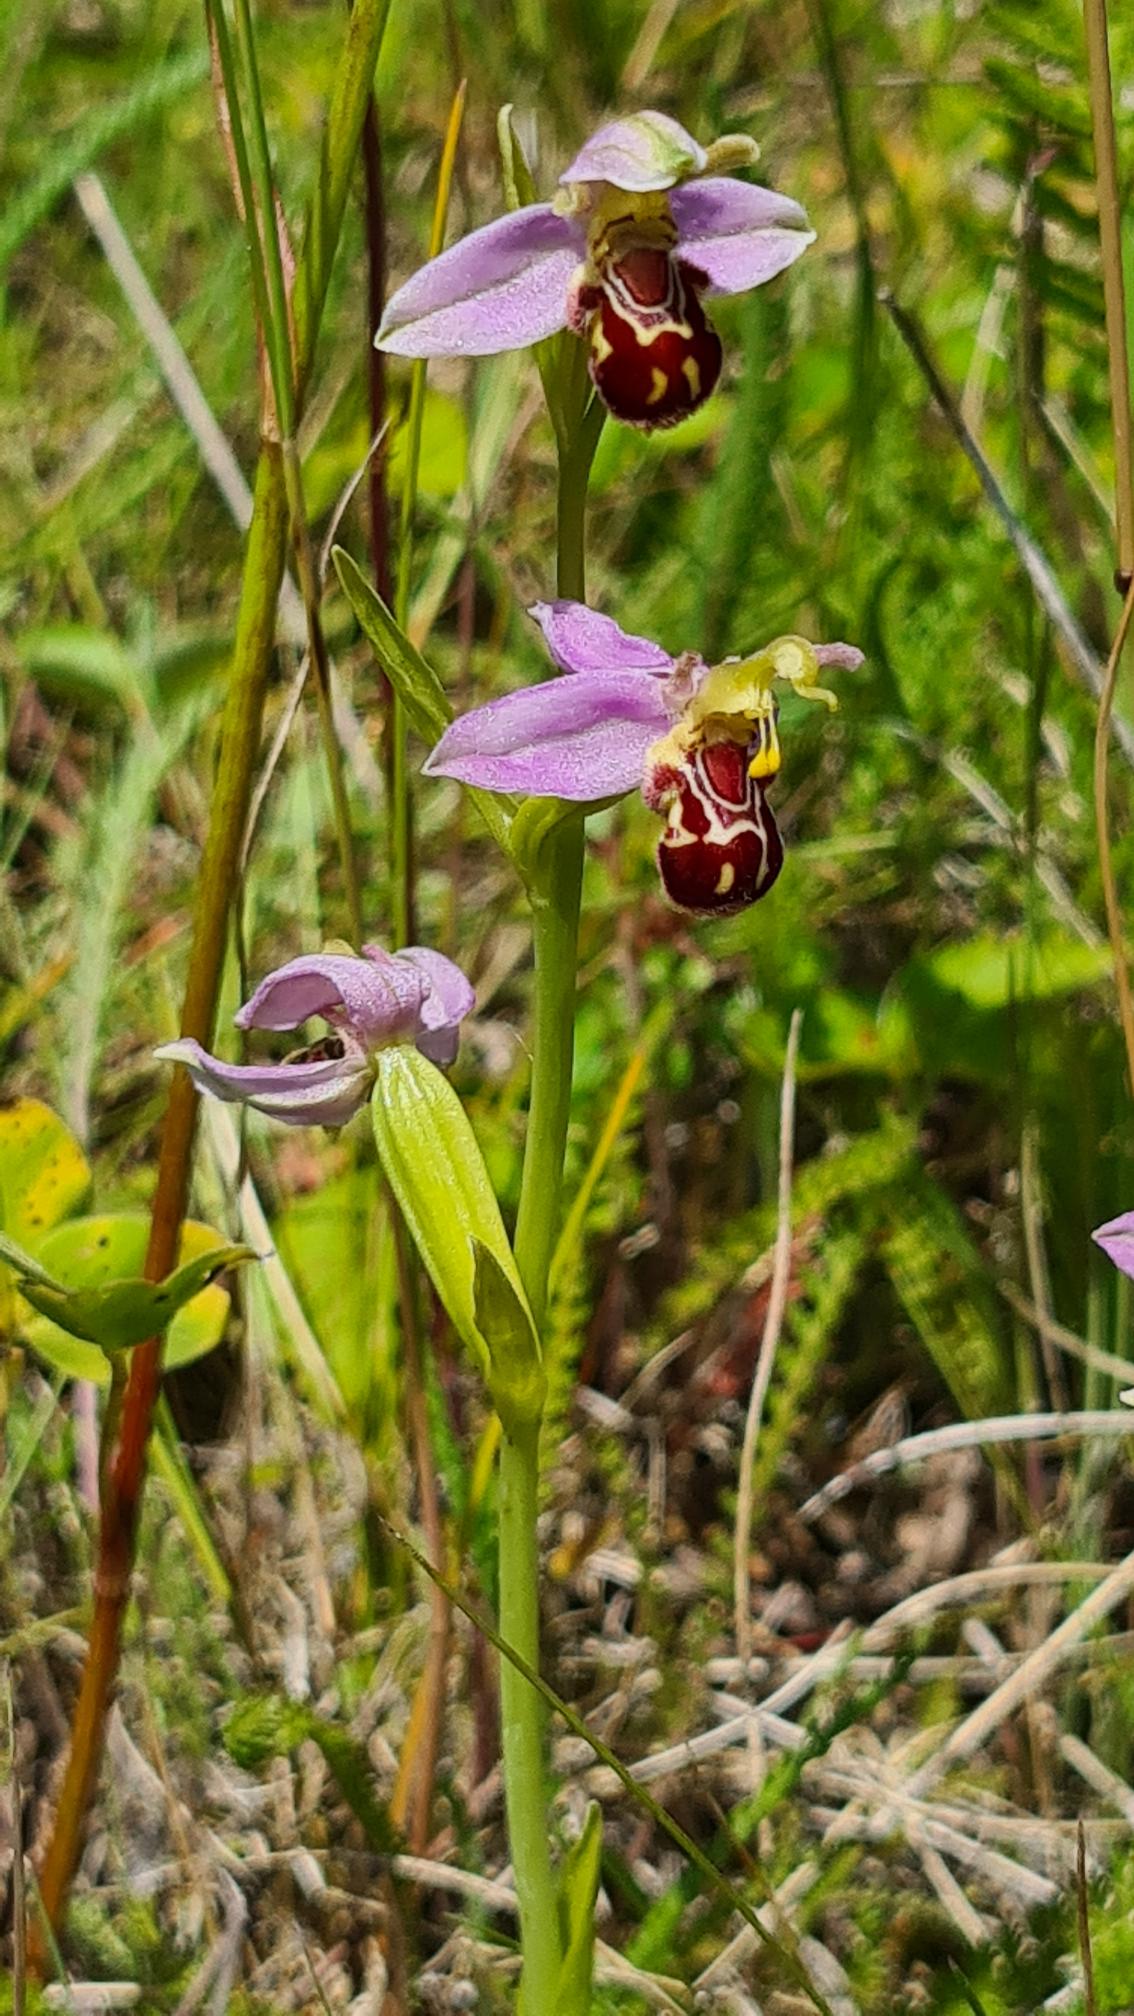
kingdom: Plantae
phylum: Tracheophyta
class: Liliopsida
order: Asparagales
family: Orchidaceae
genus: Ophrys
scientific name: Ophrys apifera
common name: Biblomst
